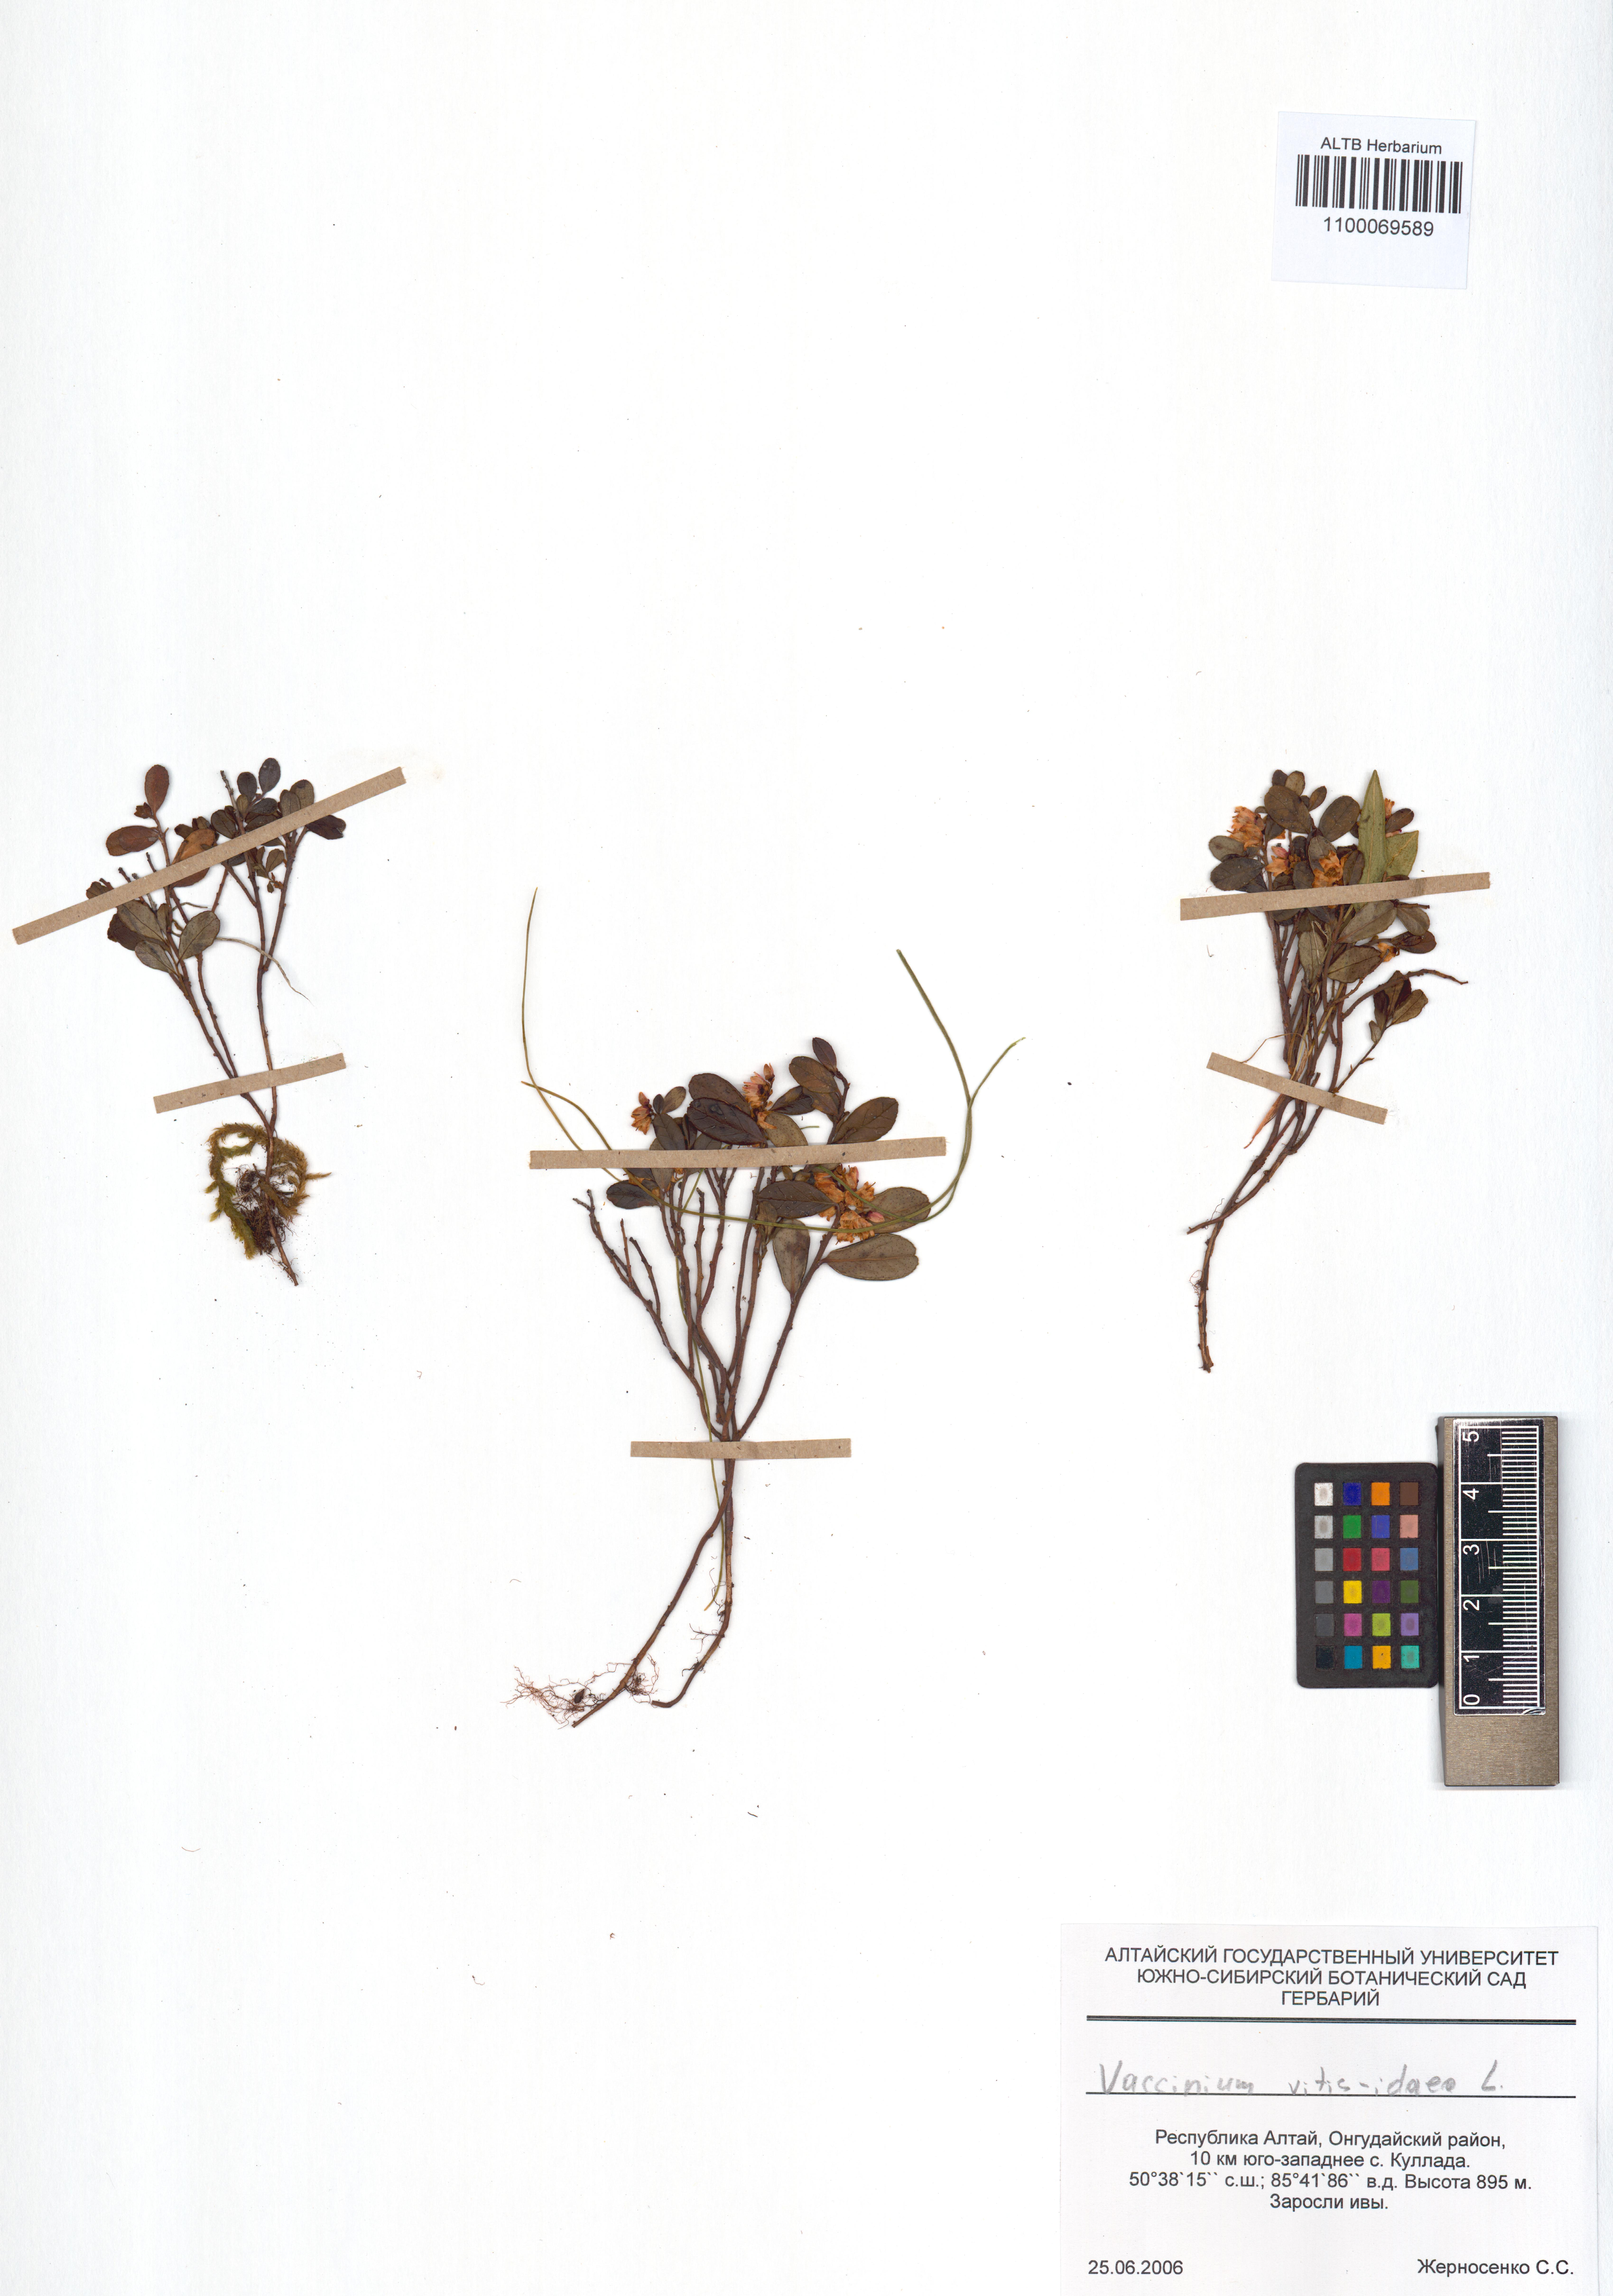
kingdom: Plantae
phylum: Tracheophyta
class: Magnoliopsida
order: Ericales
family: Ericaceae
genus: Vaccinium
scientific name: Vaccinium vitis-idaea
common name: Cowberry
